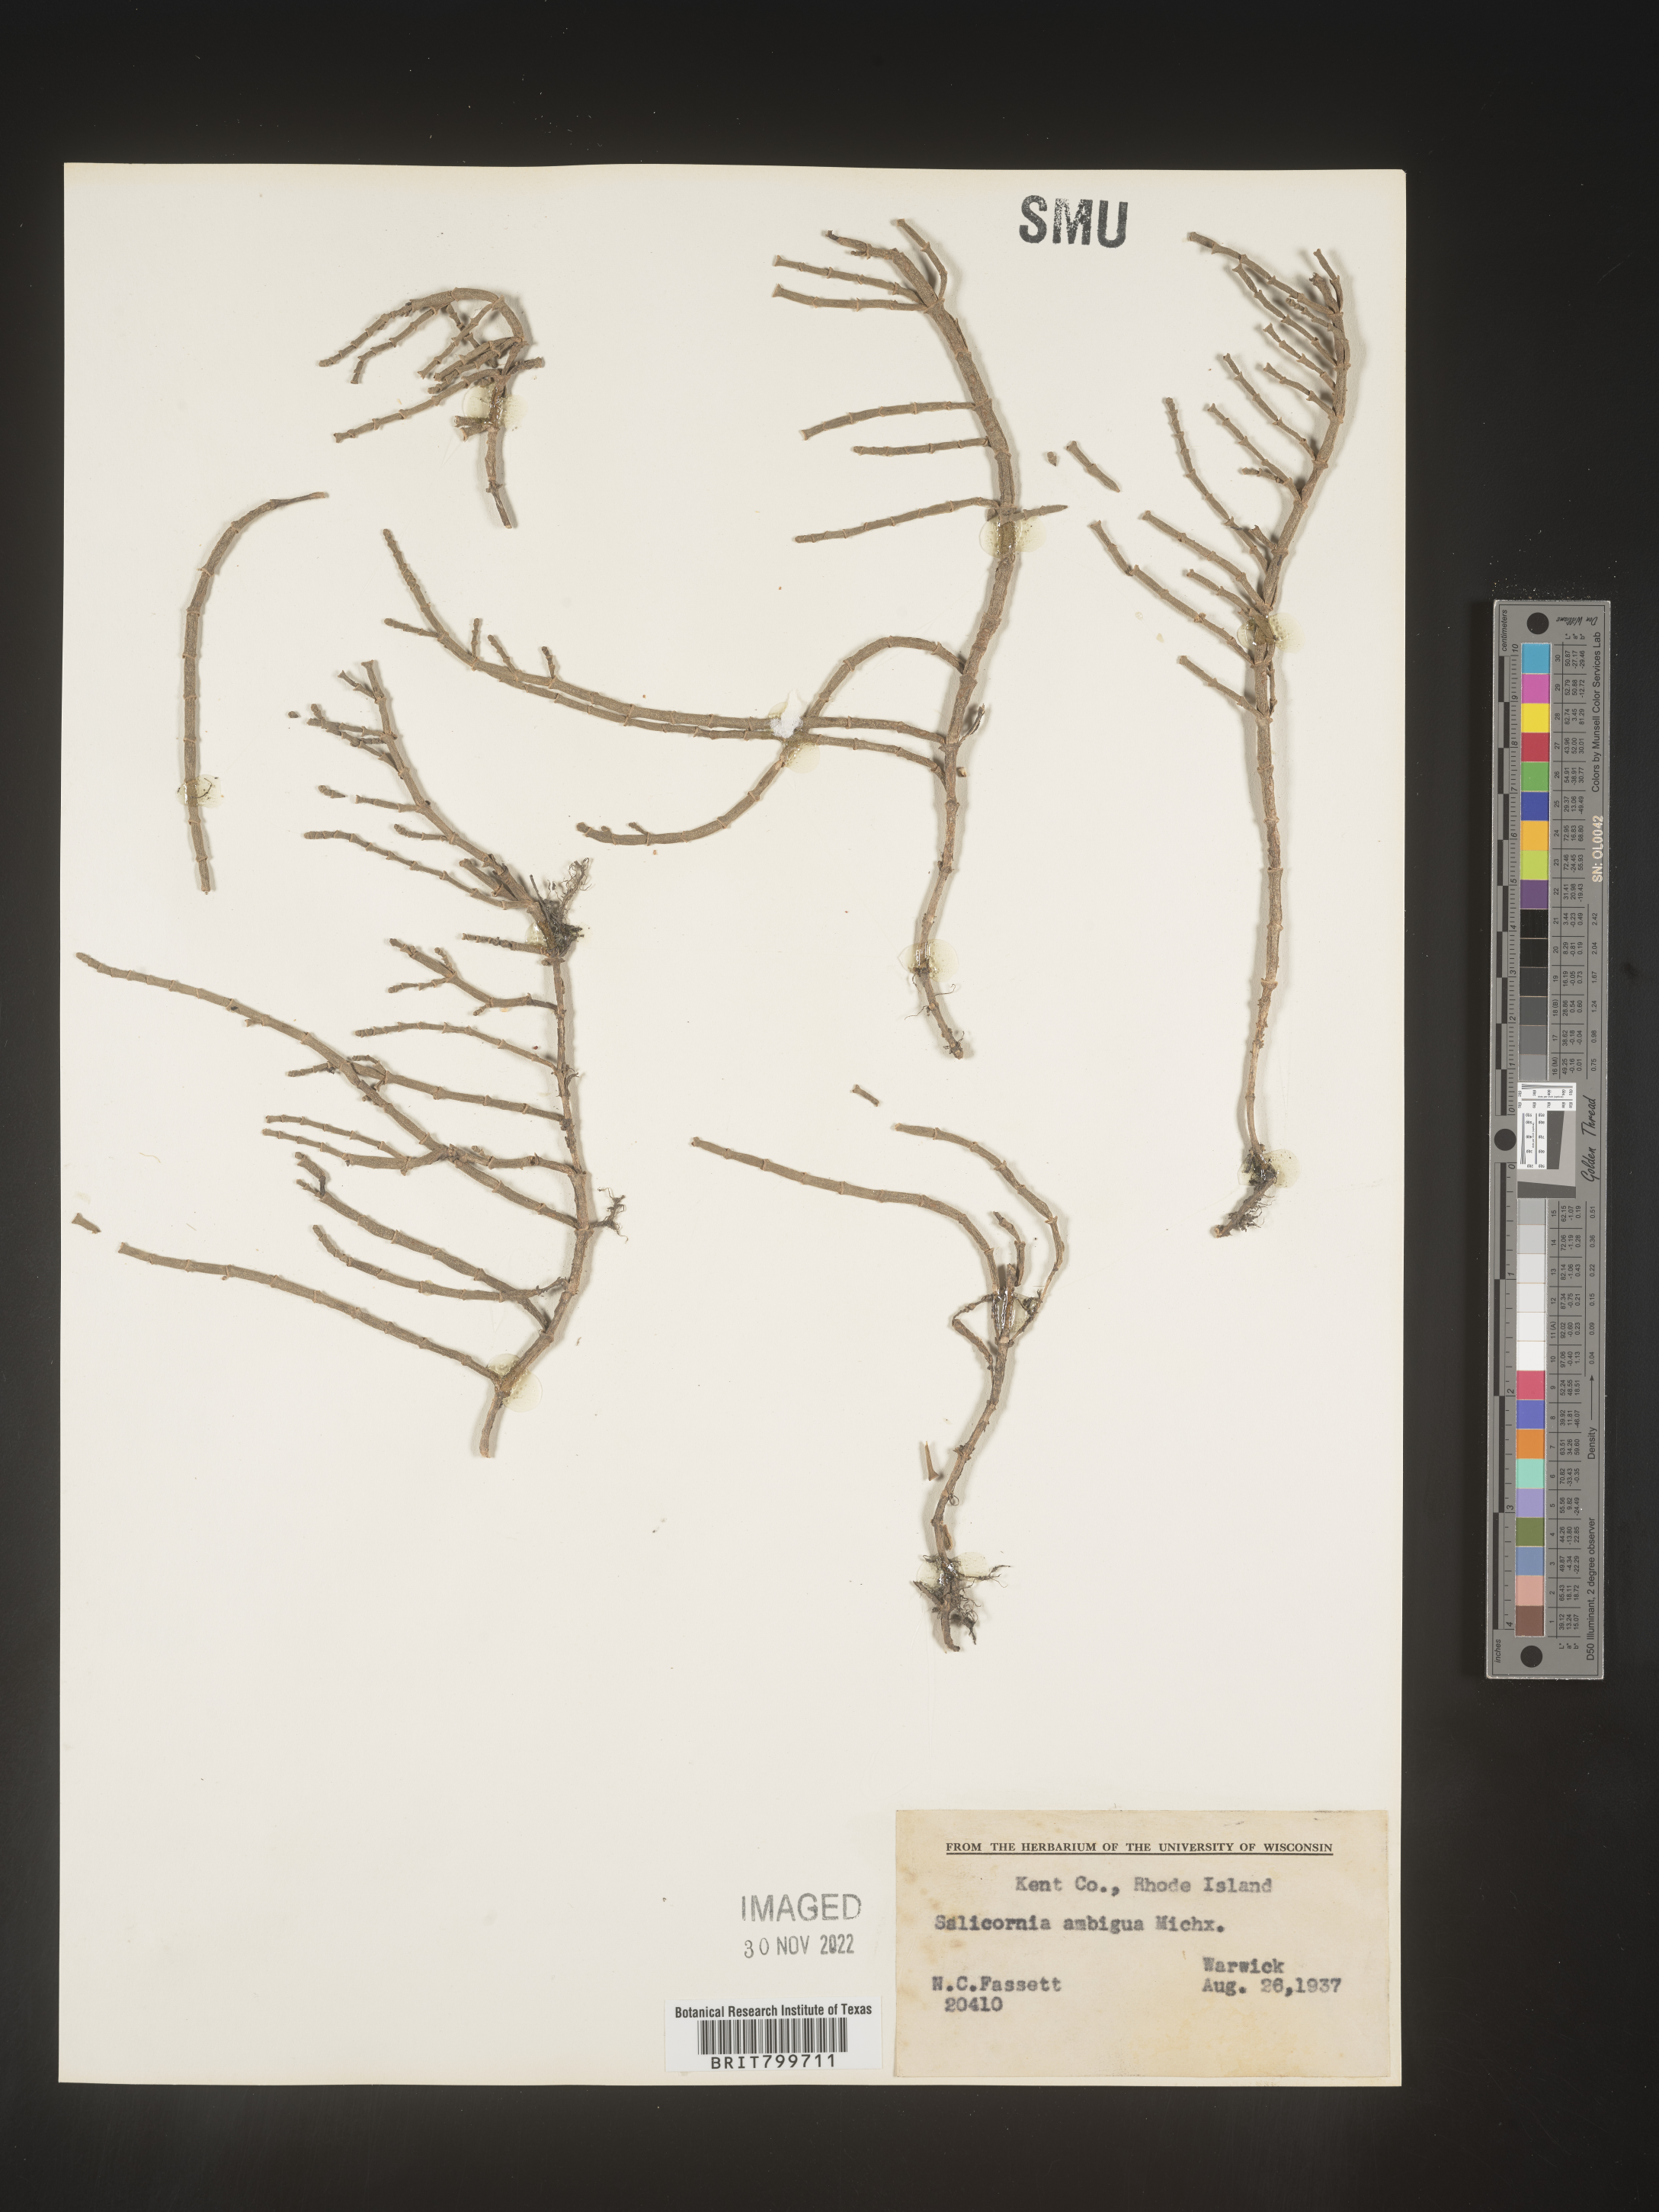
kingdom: Plantae
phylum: Tracheophyta
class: Magnoliopsida
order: Caryophyllales
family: Amaranthaceae
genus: Salicornia
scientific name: Salicornia virginica
